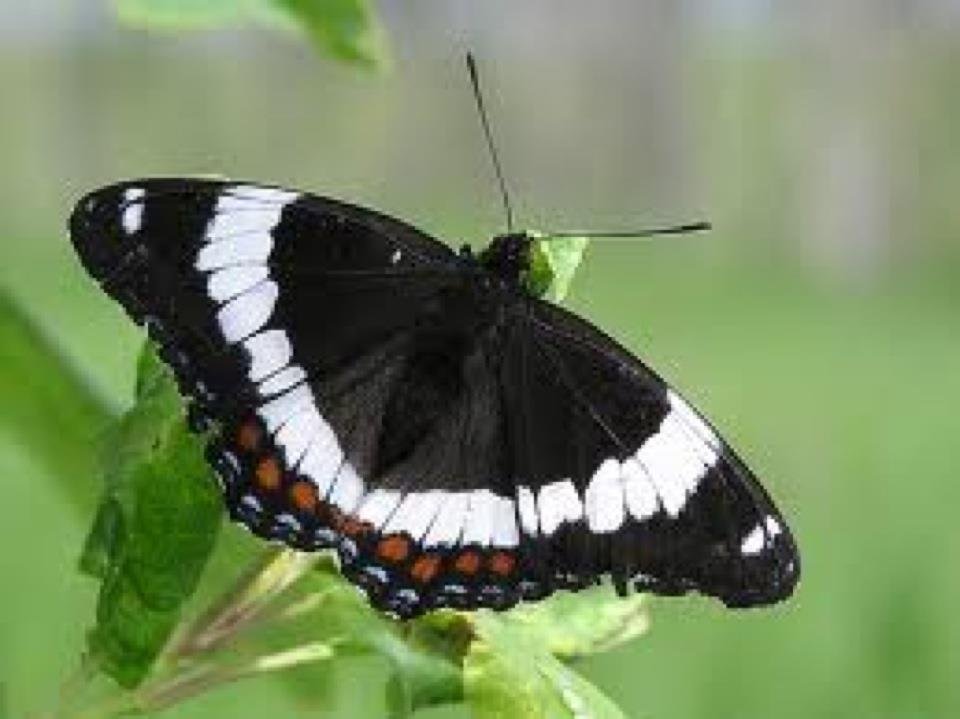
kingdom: Animalia
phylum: Arthropoda
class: Insecta
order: Lepidoptera
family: Nymphalidae
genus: Limenitis
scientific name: Limenitis arthemis
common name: Red-spotted Admiral
